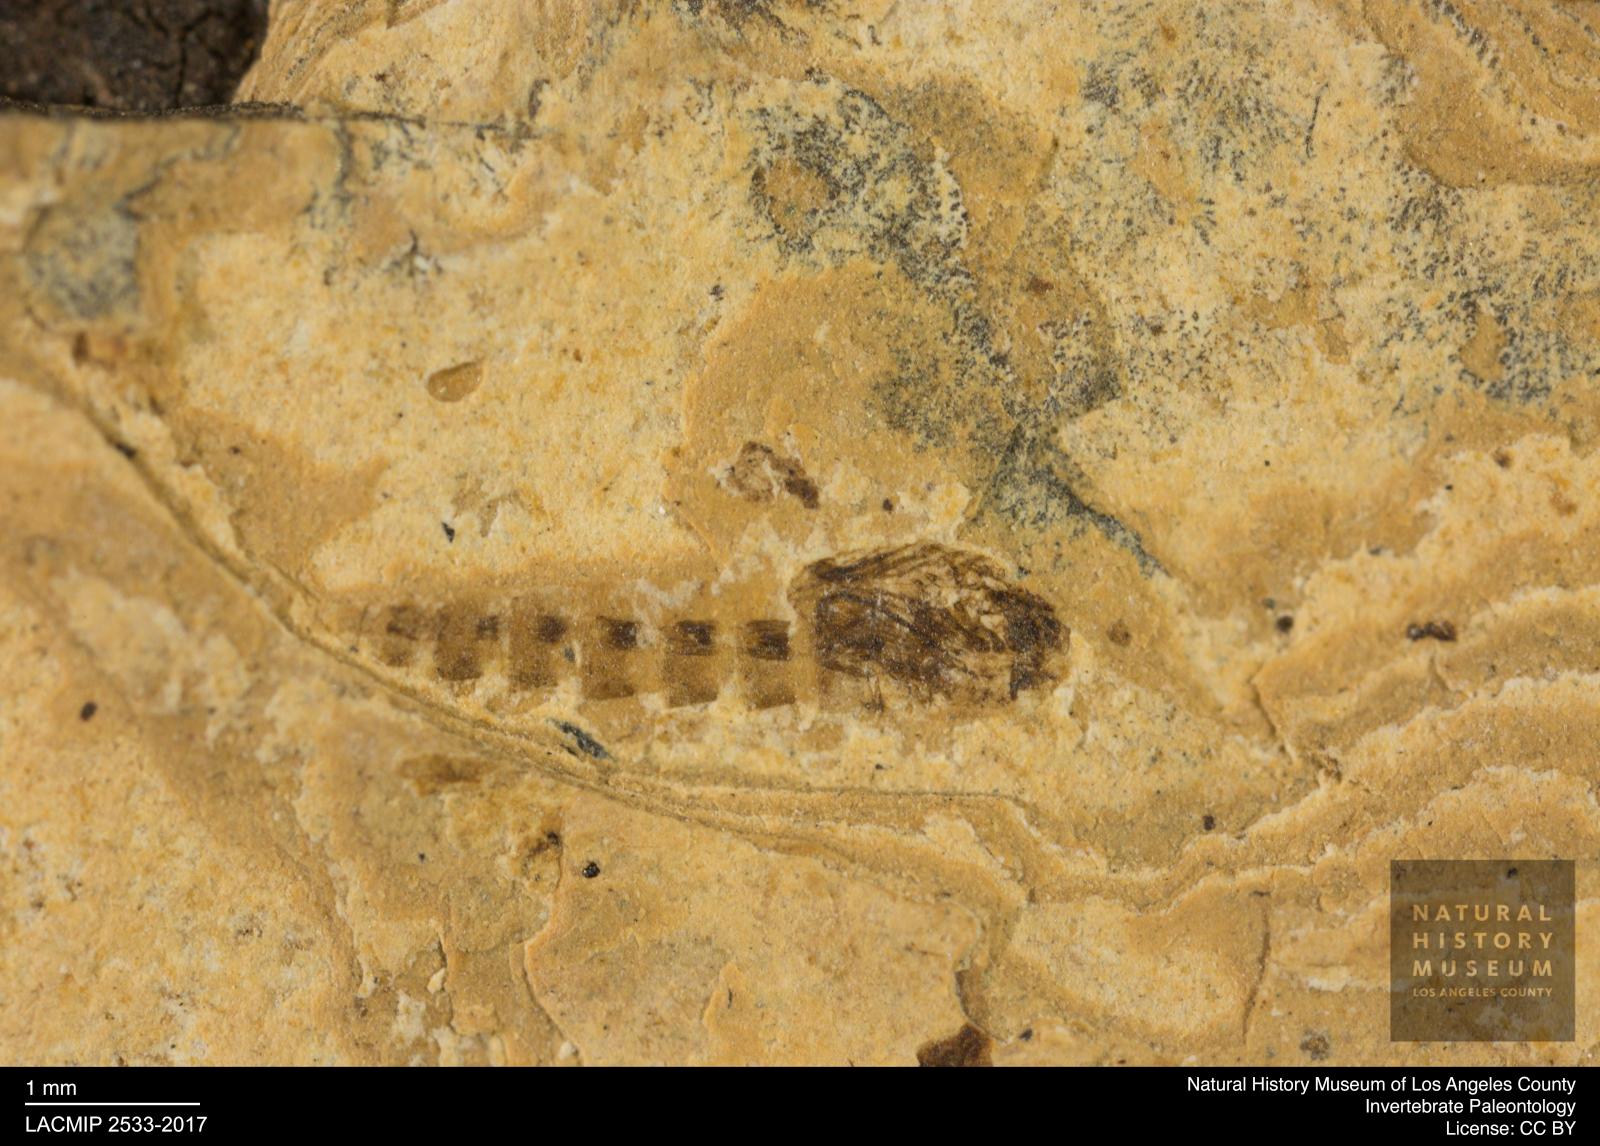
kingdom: Animalia
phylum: Arthropoda
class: Insecta
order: Diptera
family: Ceratopogonidae
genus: Ceratopogon
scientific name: Ceratopogon
